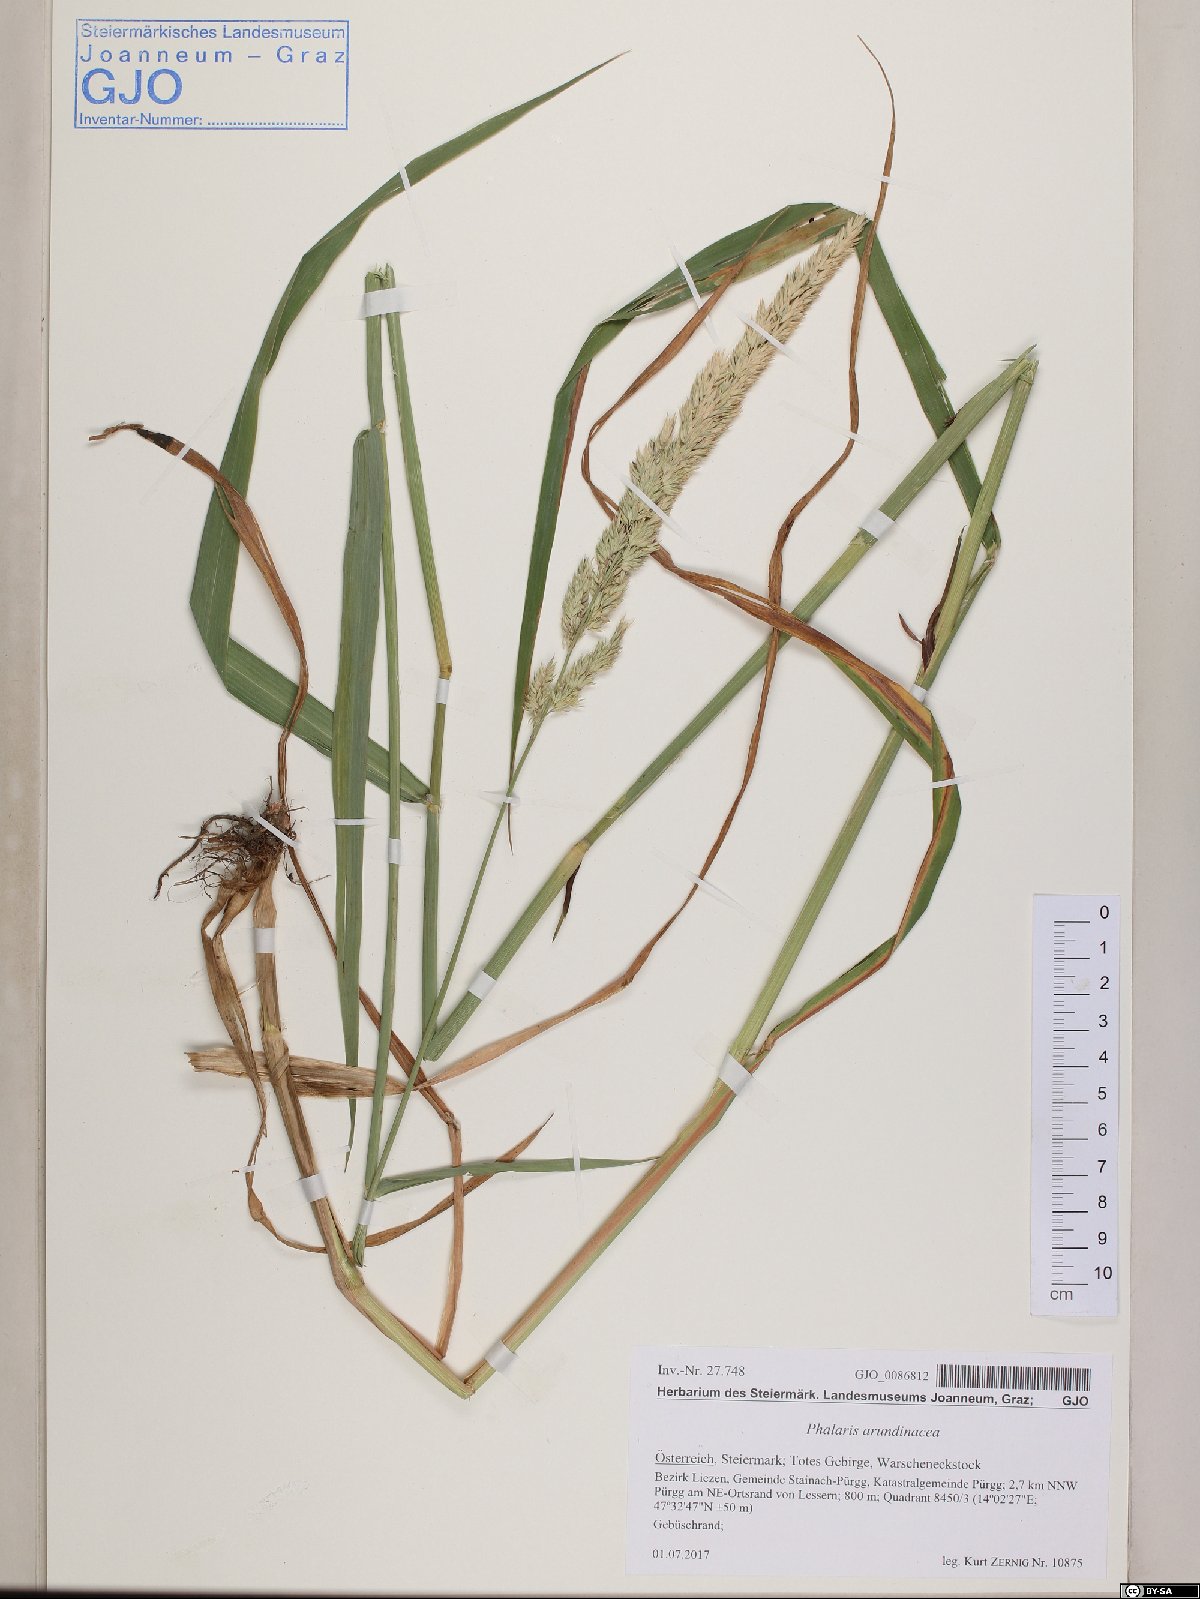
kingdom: Plantae
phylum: Tracheophyta
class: Liliopsida
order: Poales
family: Poaceae
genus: Phalaris
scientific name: Phalaris arundinacea
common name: Reed canary-grass
